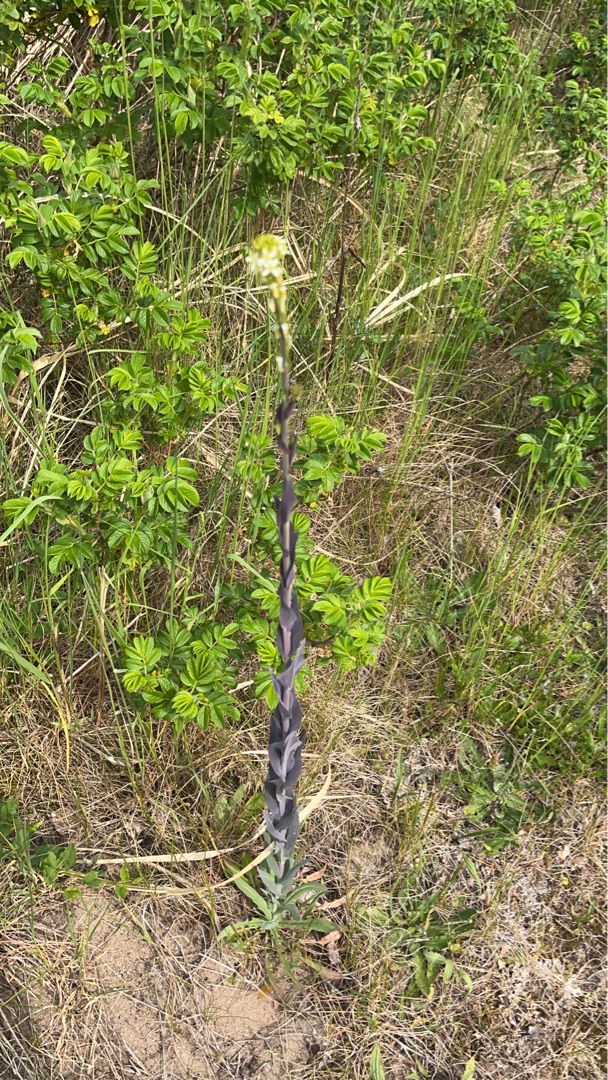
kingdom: Plantae
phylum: Tracheophyta
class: Magnoliopsida
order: Brassicales
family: Brassicaceae
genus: Turritis
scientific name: Turritis glabra
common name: Tårnurt
